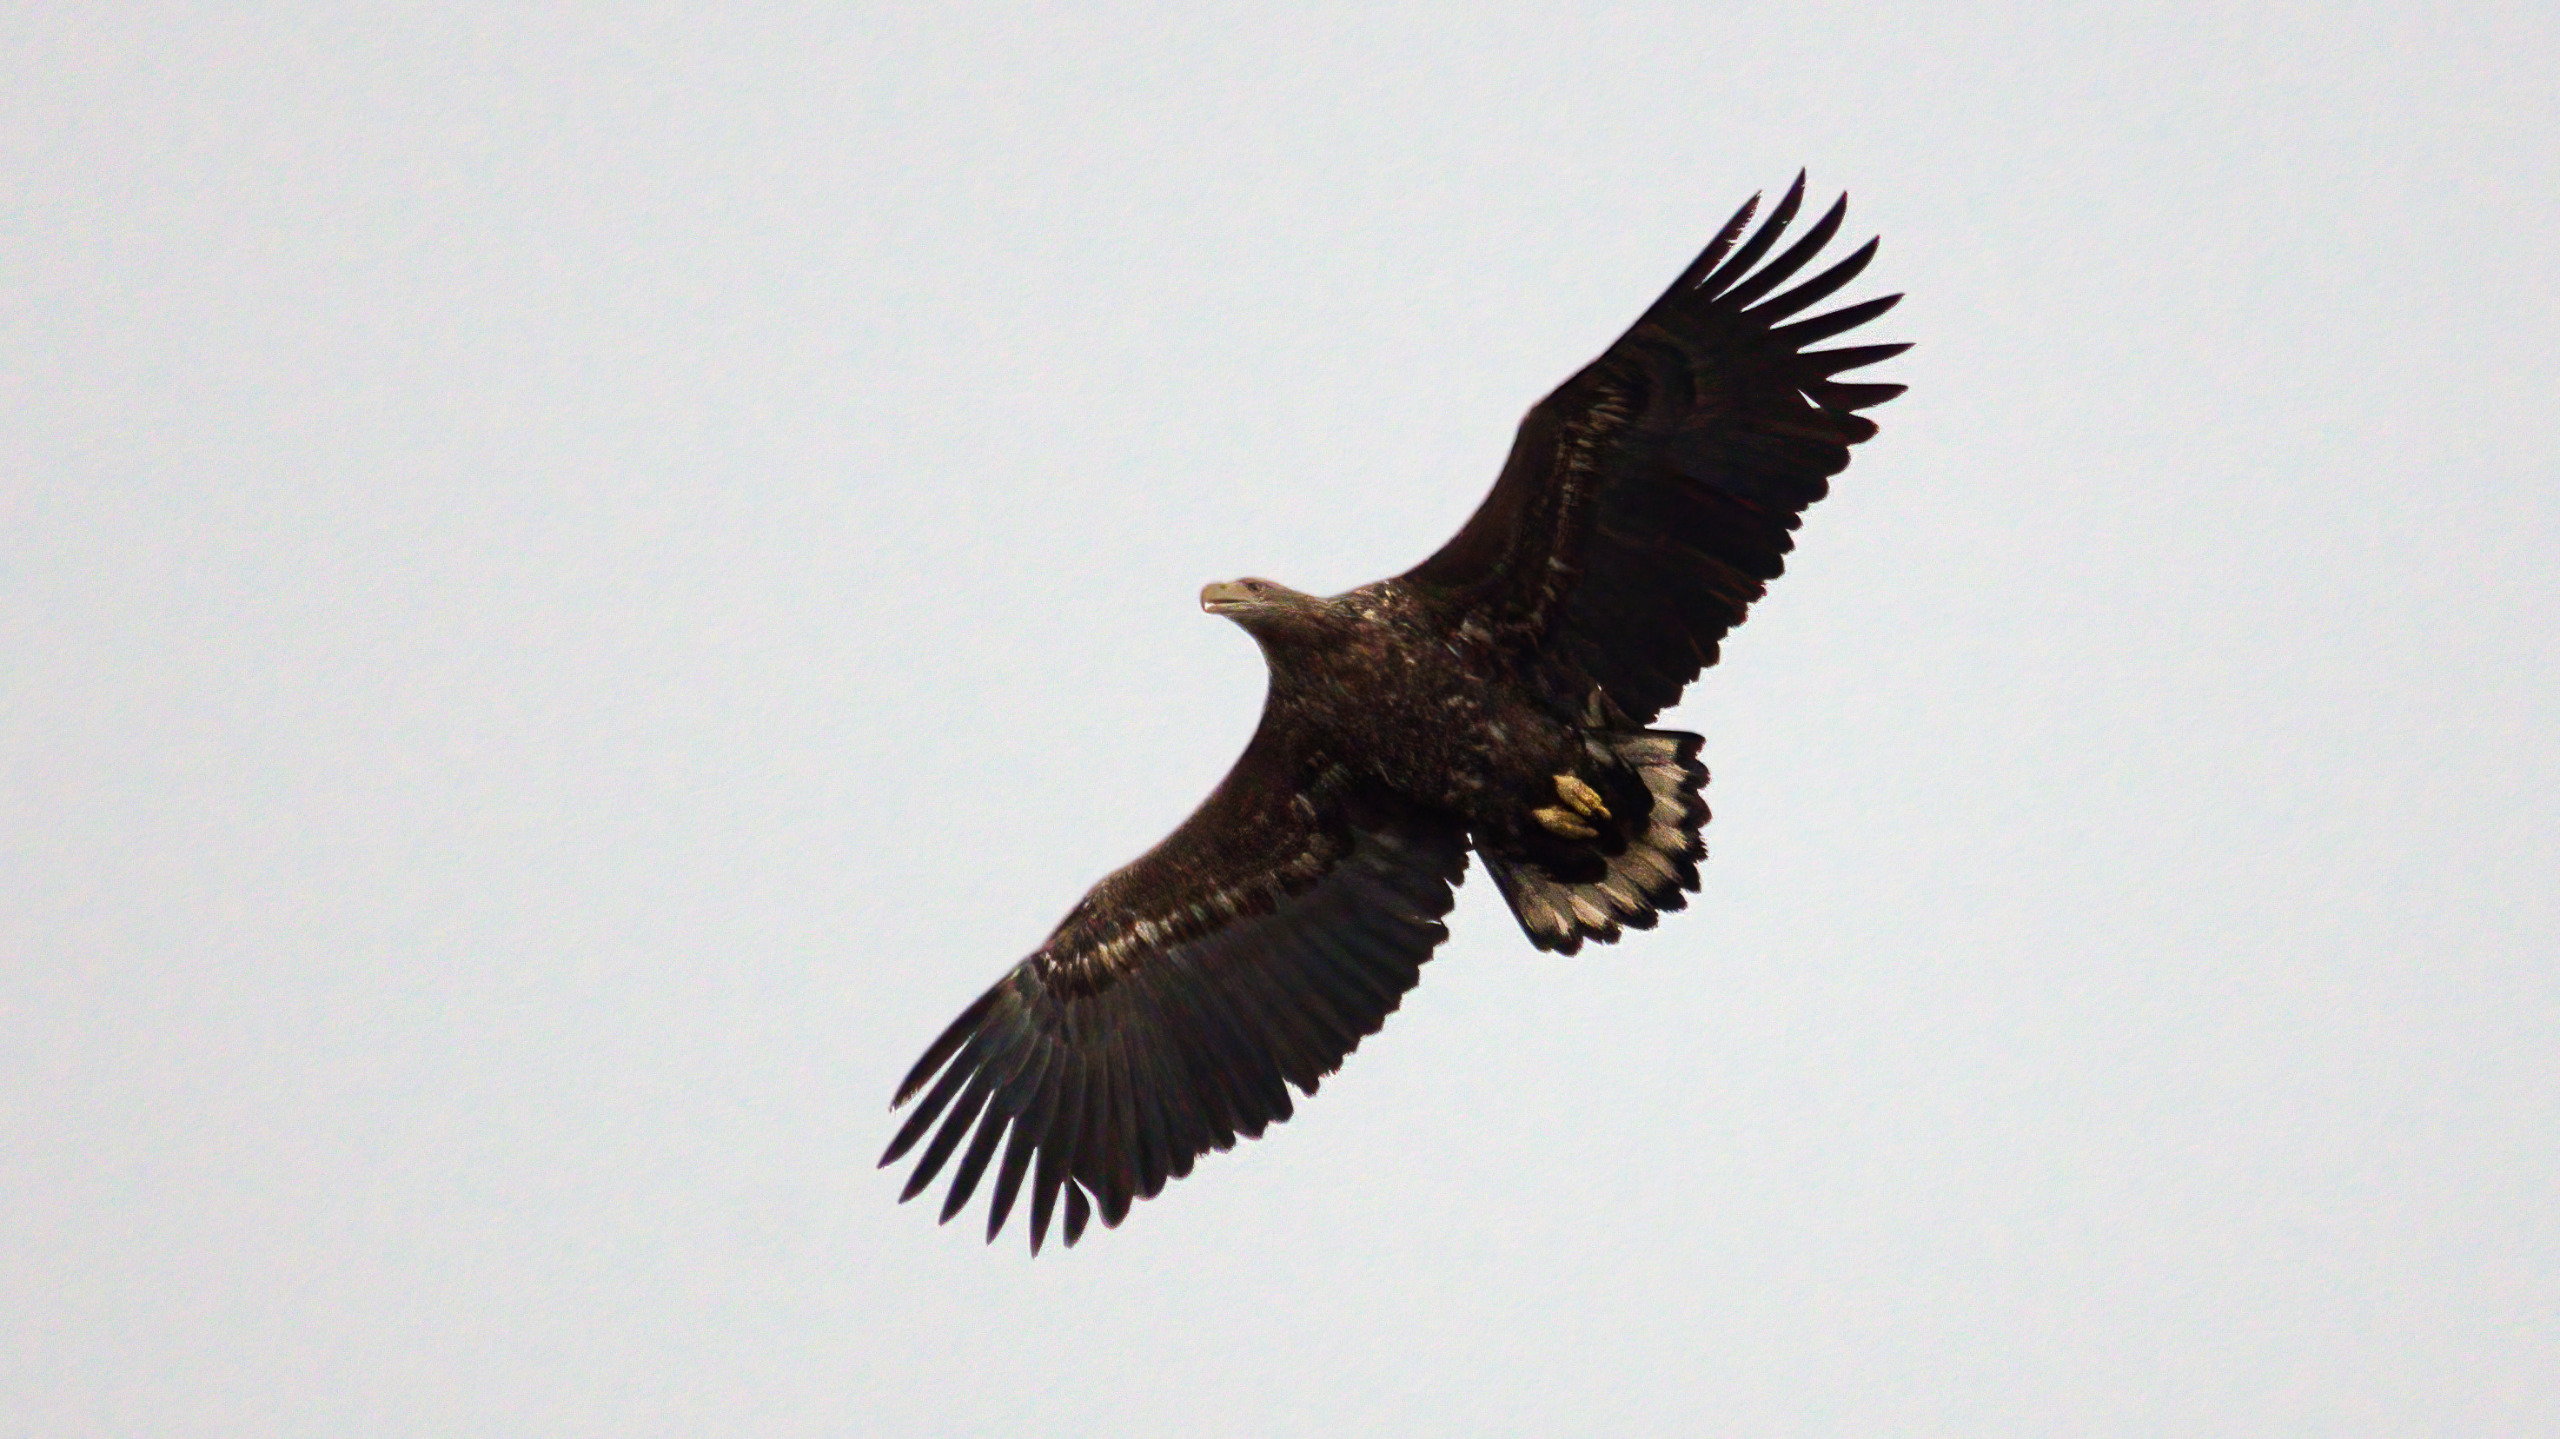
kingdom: Animalia
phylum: Chordata
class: Aves
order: Accipitriformes
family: Accipitridae
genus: Haliaeetus
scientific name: Haliaeetus albicilla
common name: Havørn
